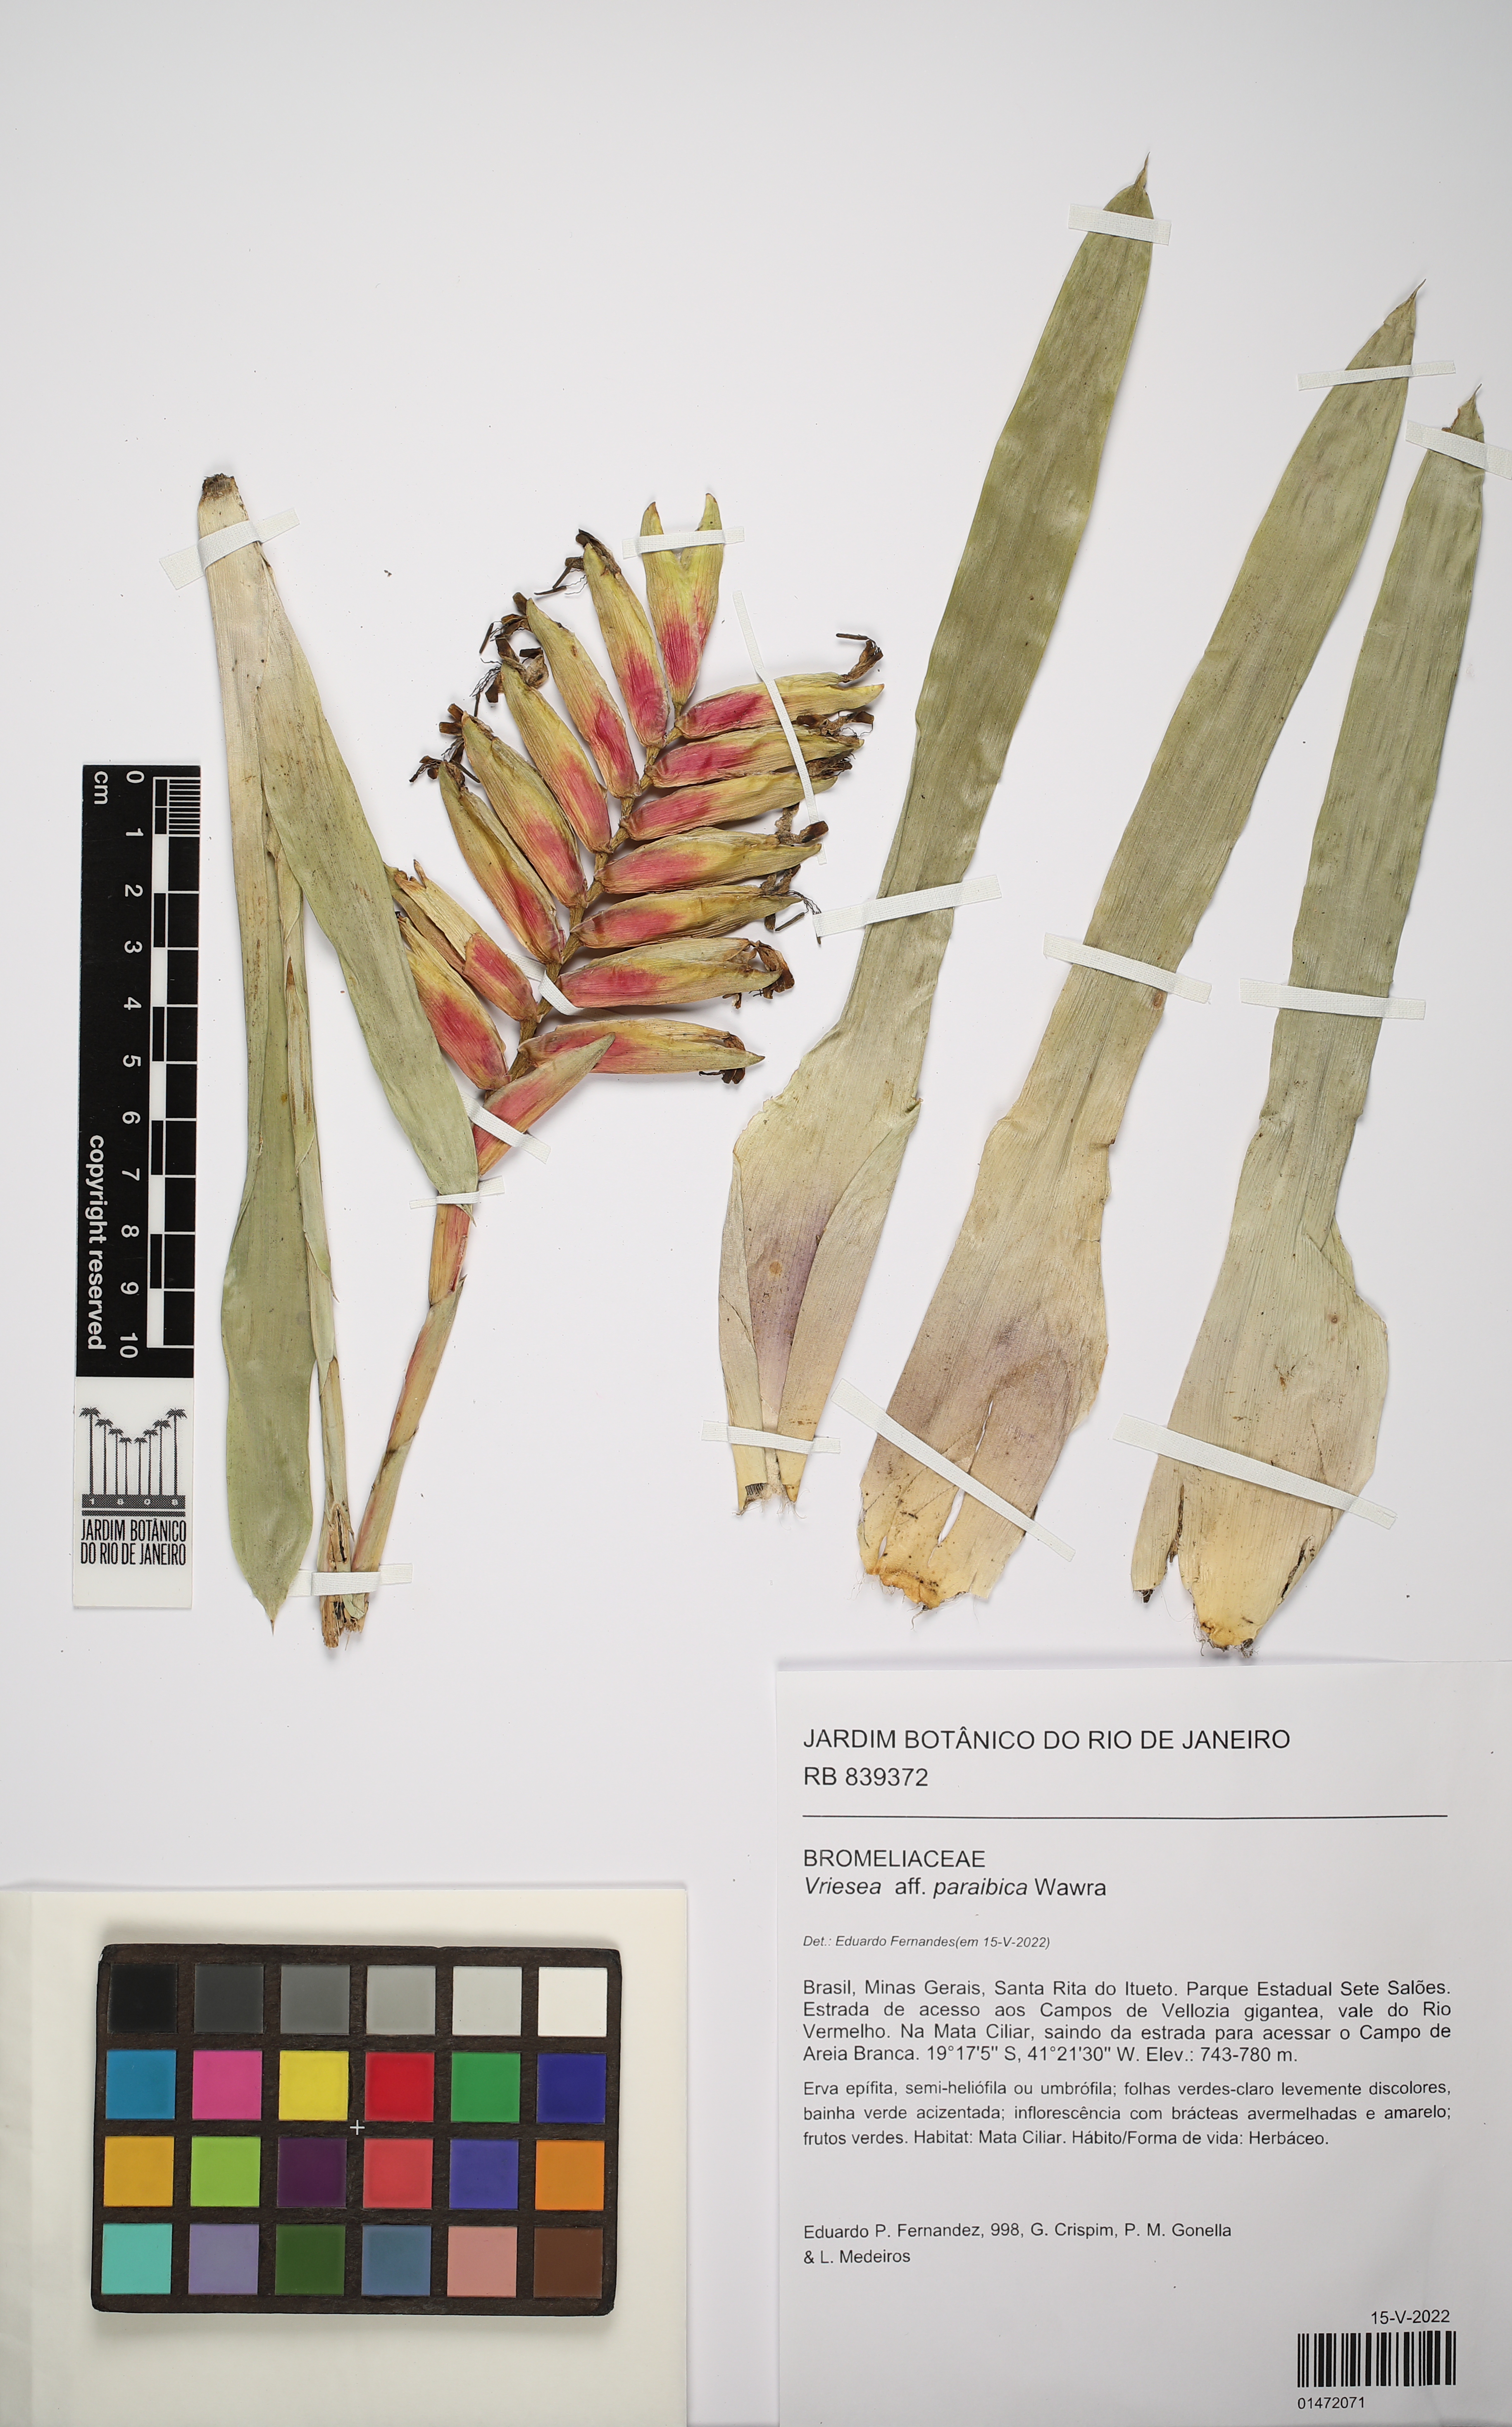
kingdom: Plantae
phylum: Tracheophyta
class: Liliopsida
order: Poales
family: Bromeliaceae
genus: Vriesea
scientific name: Vriesea paraibica
